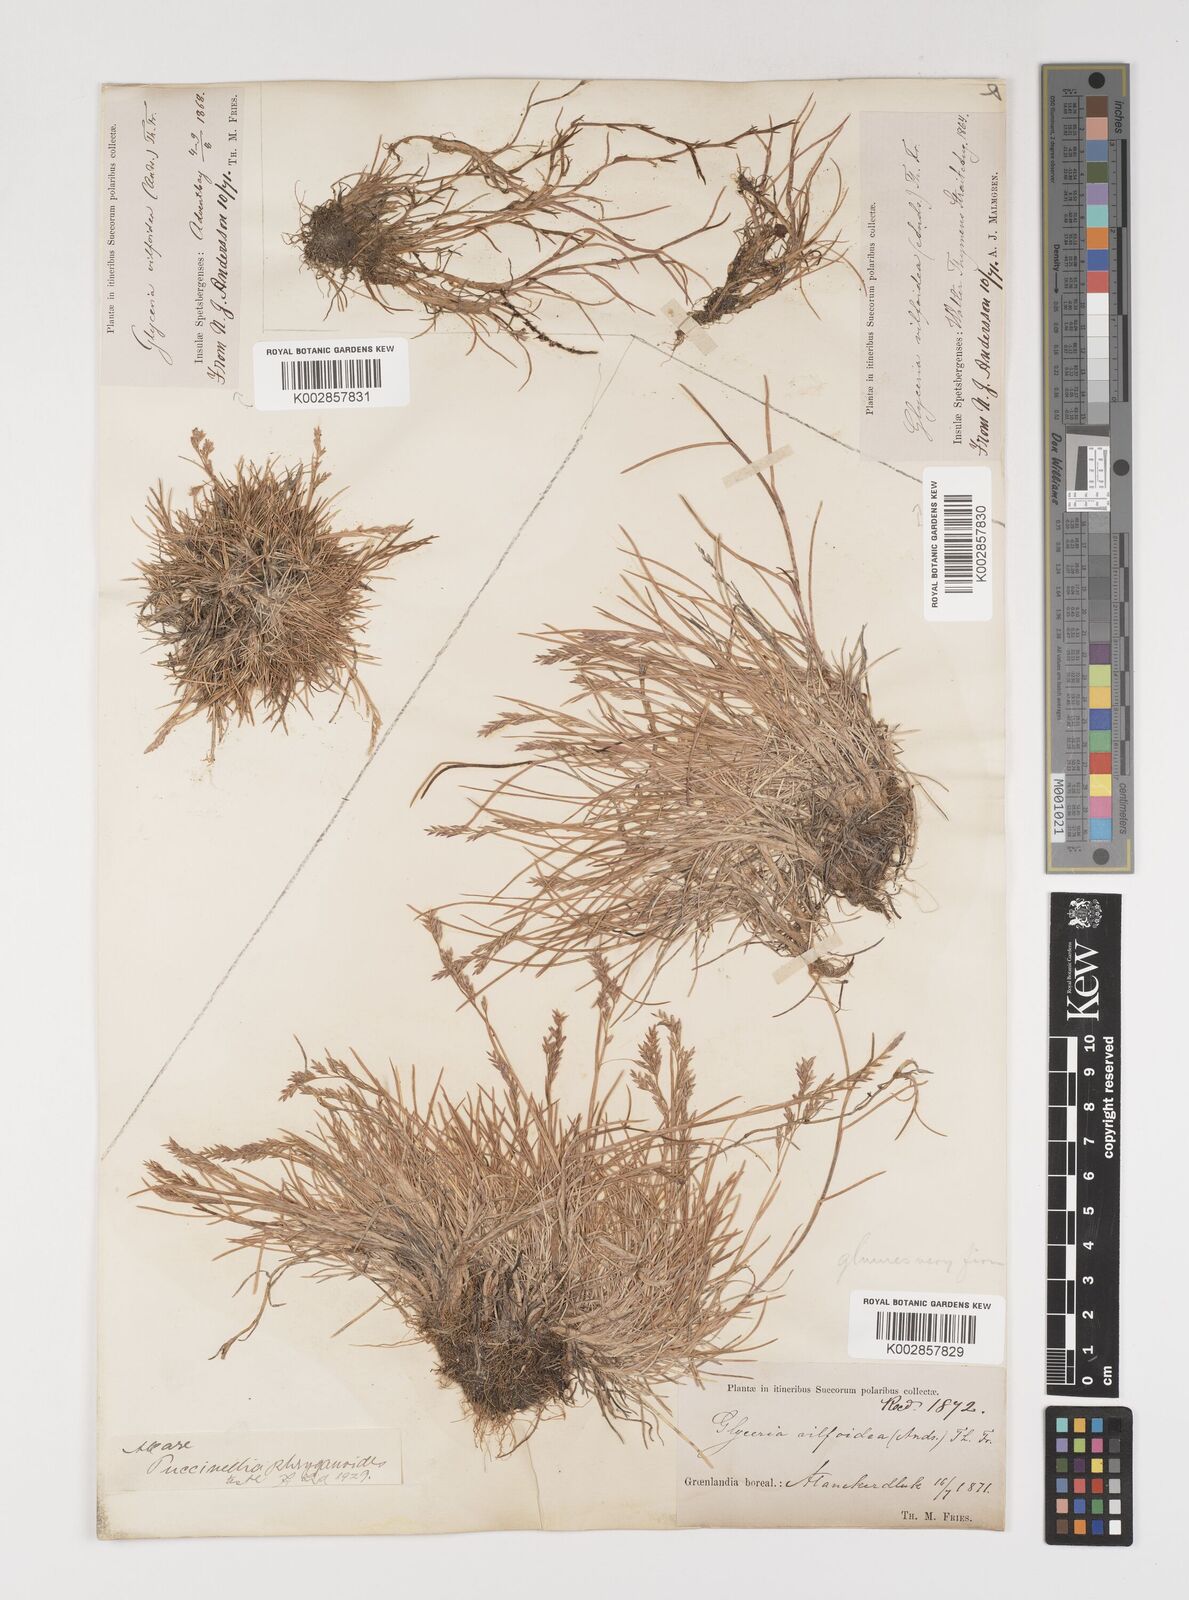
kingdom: Plantae
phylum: Tracheophyta
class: Liliopsida
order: Poales
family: Poaceae
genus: Puccinellia
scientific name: Puccinellia phryganodes
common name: Creeping alkaligrass
